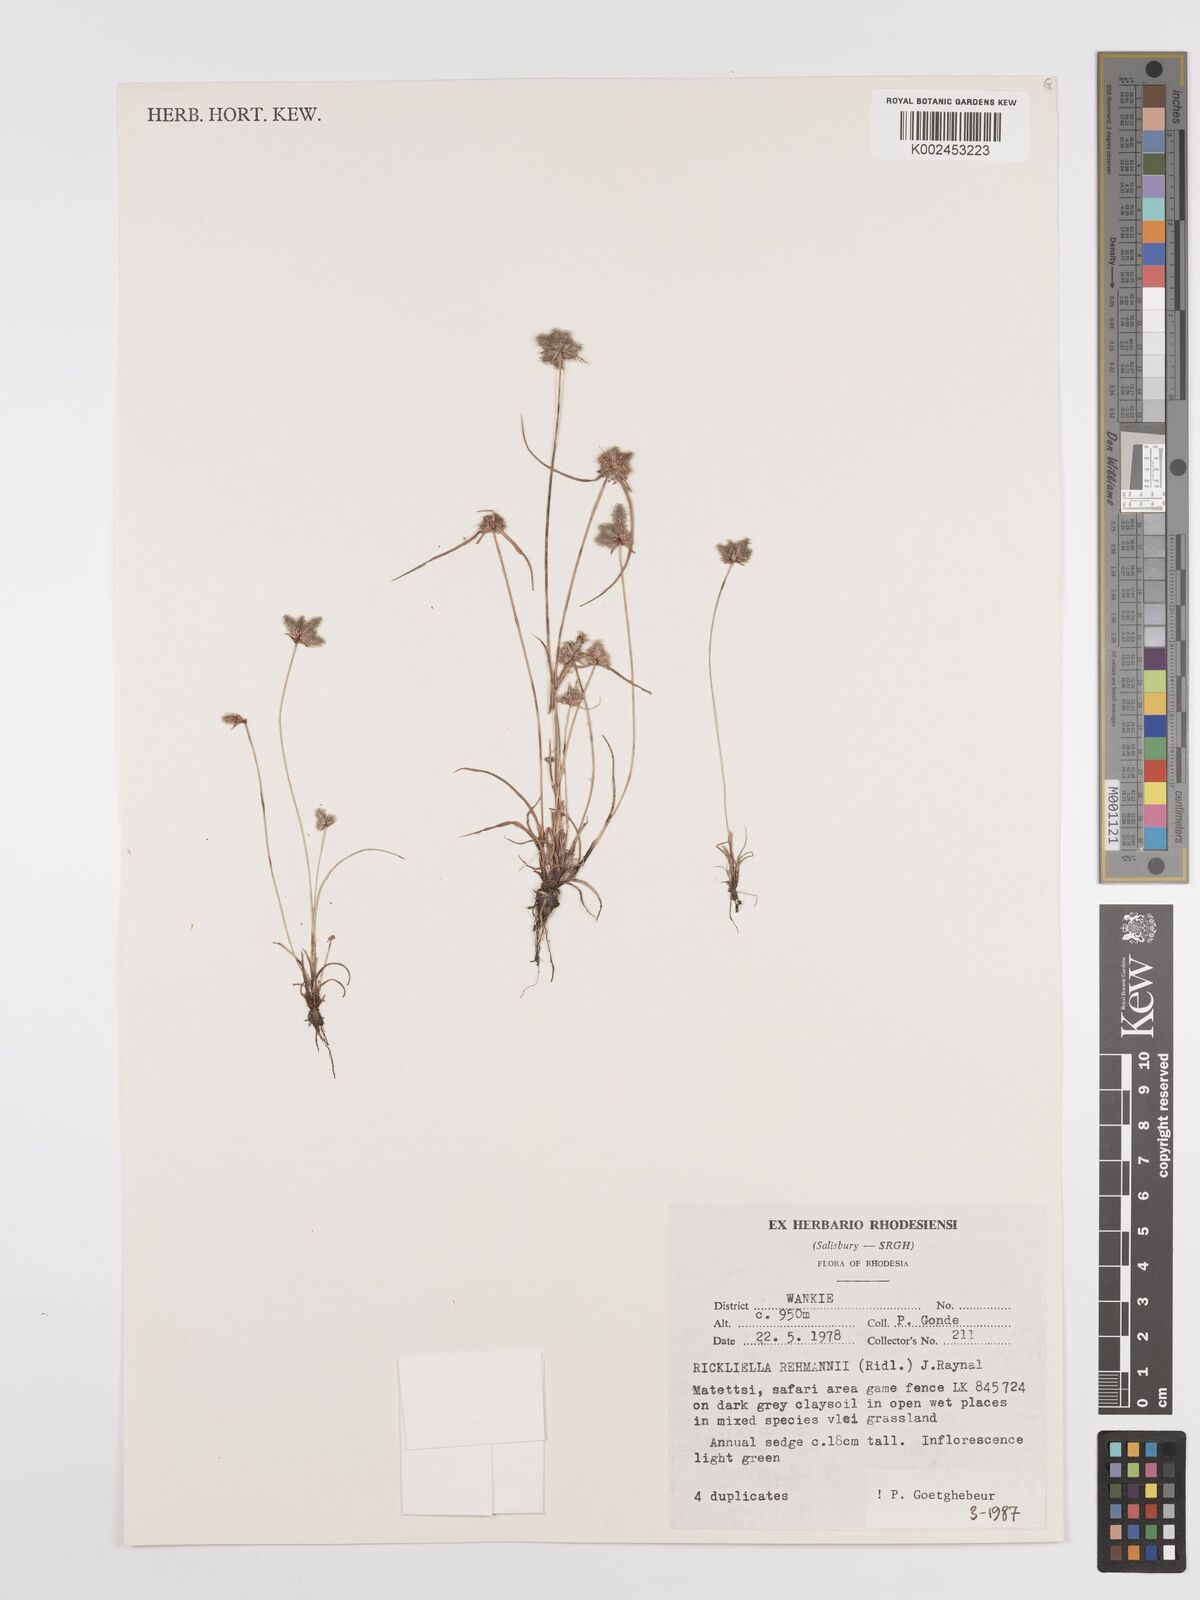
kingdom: Plantae
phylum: Tracheophyta
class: Liliopsida
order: Poales
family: Cyperaceae
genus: Cyperus
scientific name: Cyperus sanguinolentus
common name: Purpleglume flatsedge
